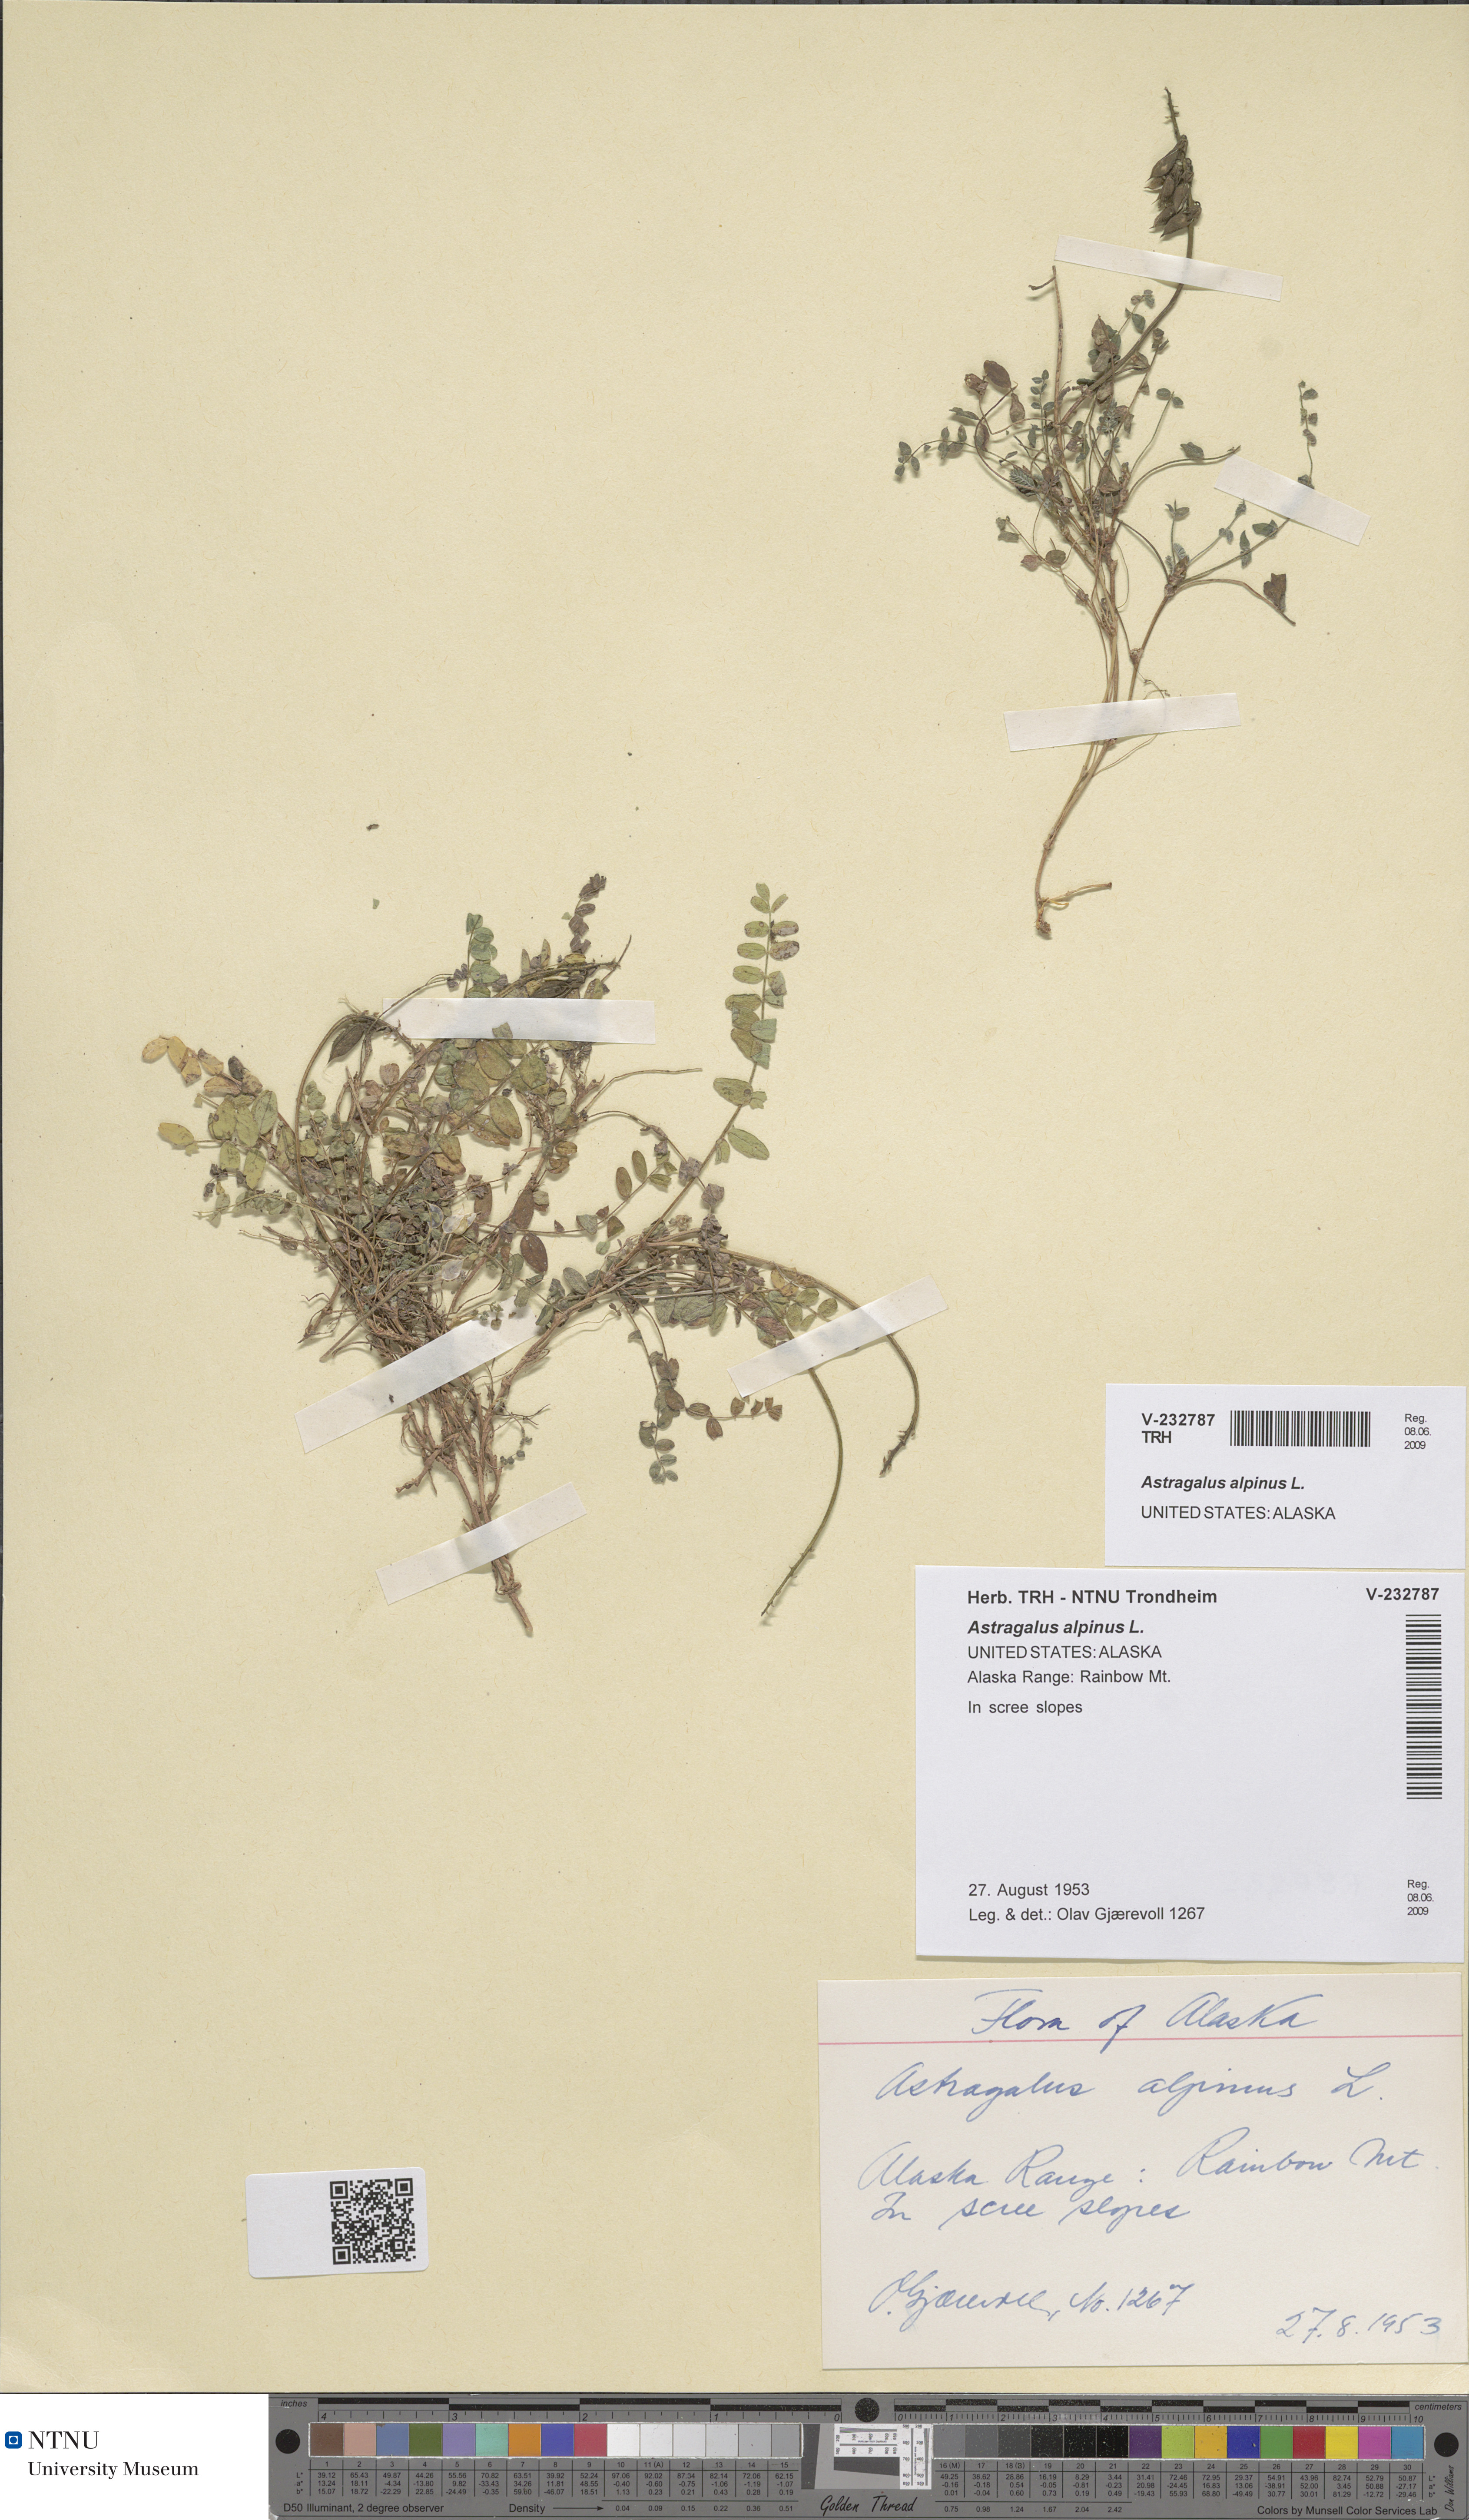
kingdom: Plantae
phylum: Tracheophyta
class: Magnoliopsida
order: Fabales
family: Fabaceae
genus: Astragalus
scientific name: Astragalus alpinus
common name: Alpine milk-vetch
